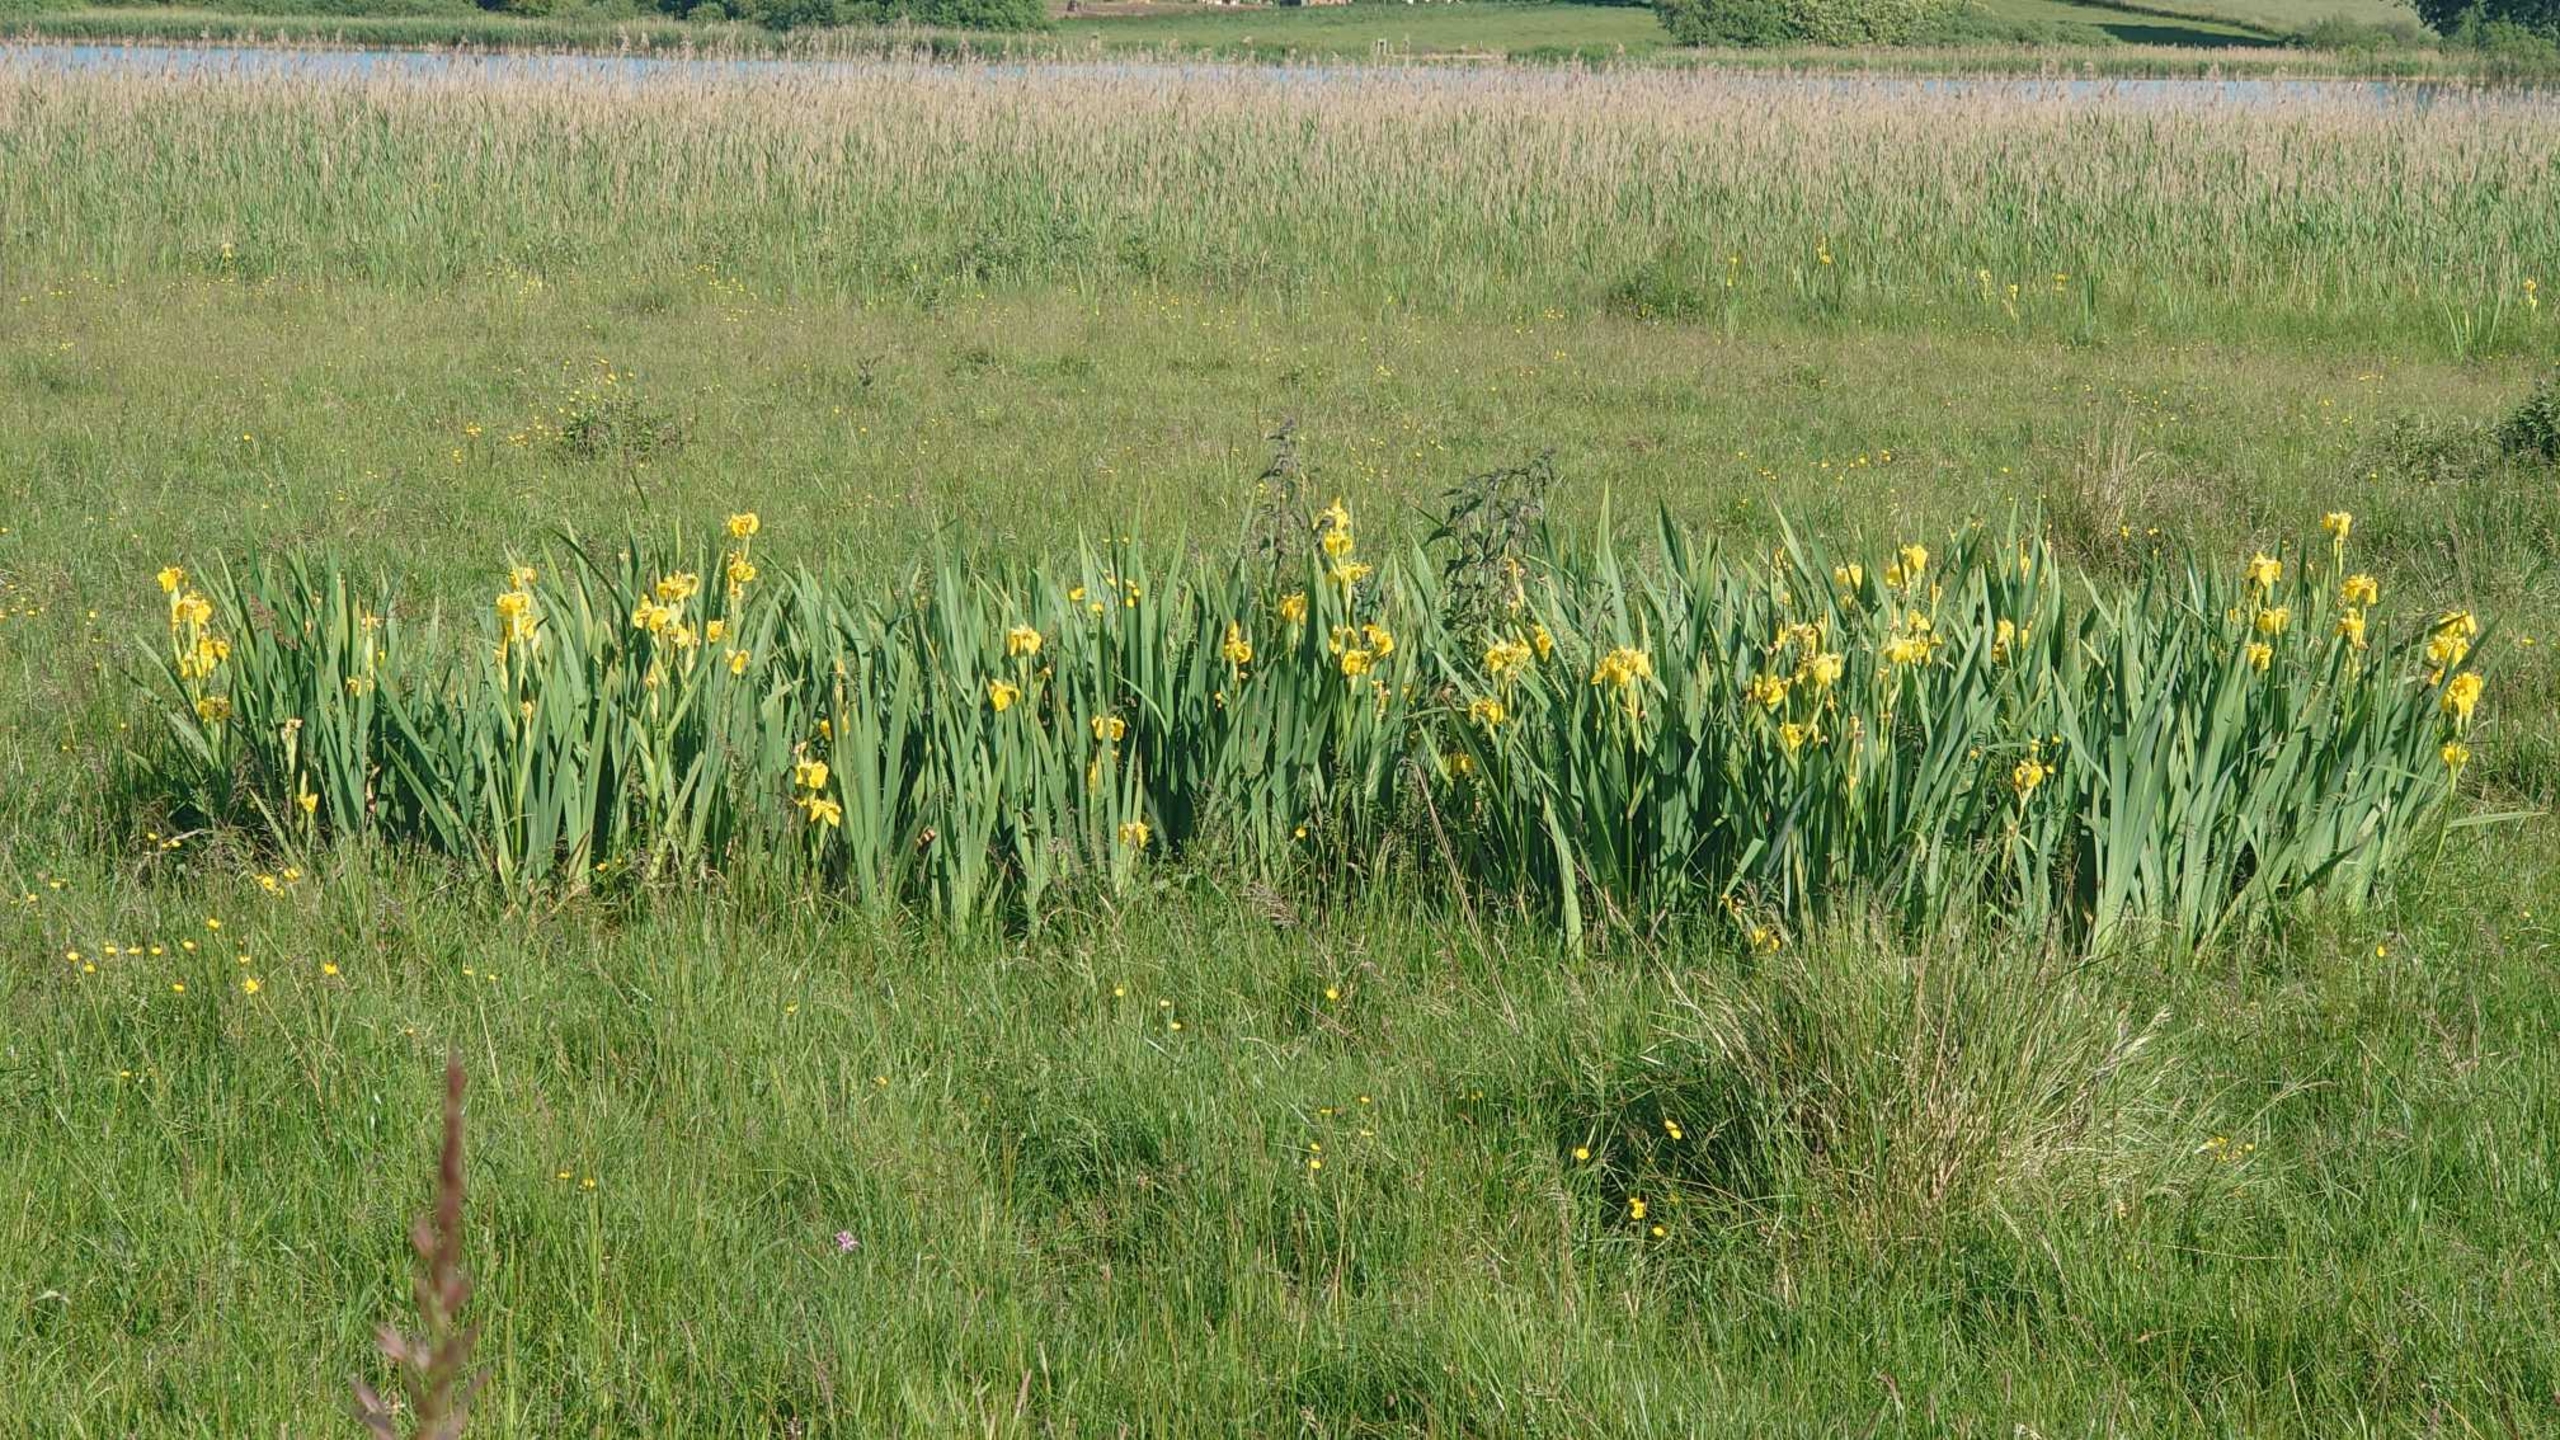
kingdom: Plantae
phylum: Tracheophyta
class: Liliopsida
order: Asparagales
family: Iridaceae
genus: Iris
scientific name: Iris pseudacorus
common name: Gul iris
